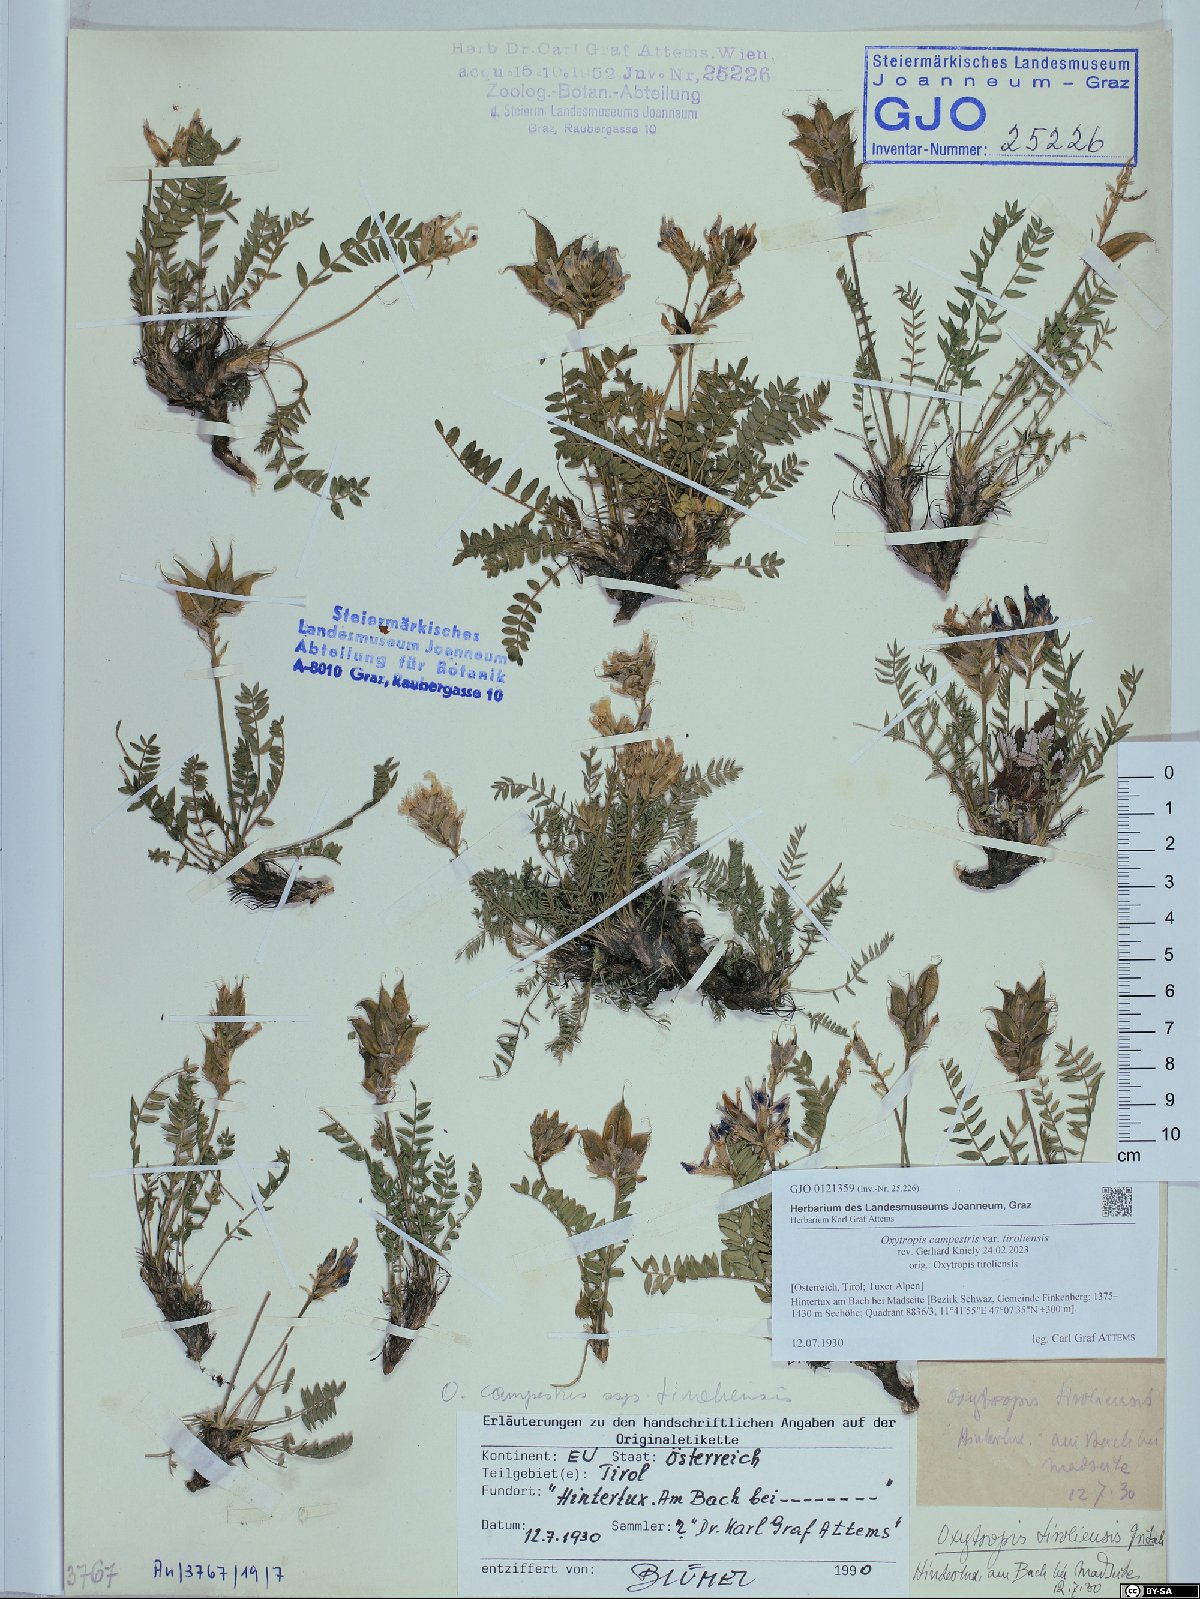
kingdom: Plantae
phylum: Tracheophyta
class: Magnoliopsida
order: Fabales
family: Fabaceae
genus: Oxytropis
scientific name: Oxytropis campestris
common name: Field locoweed
